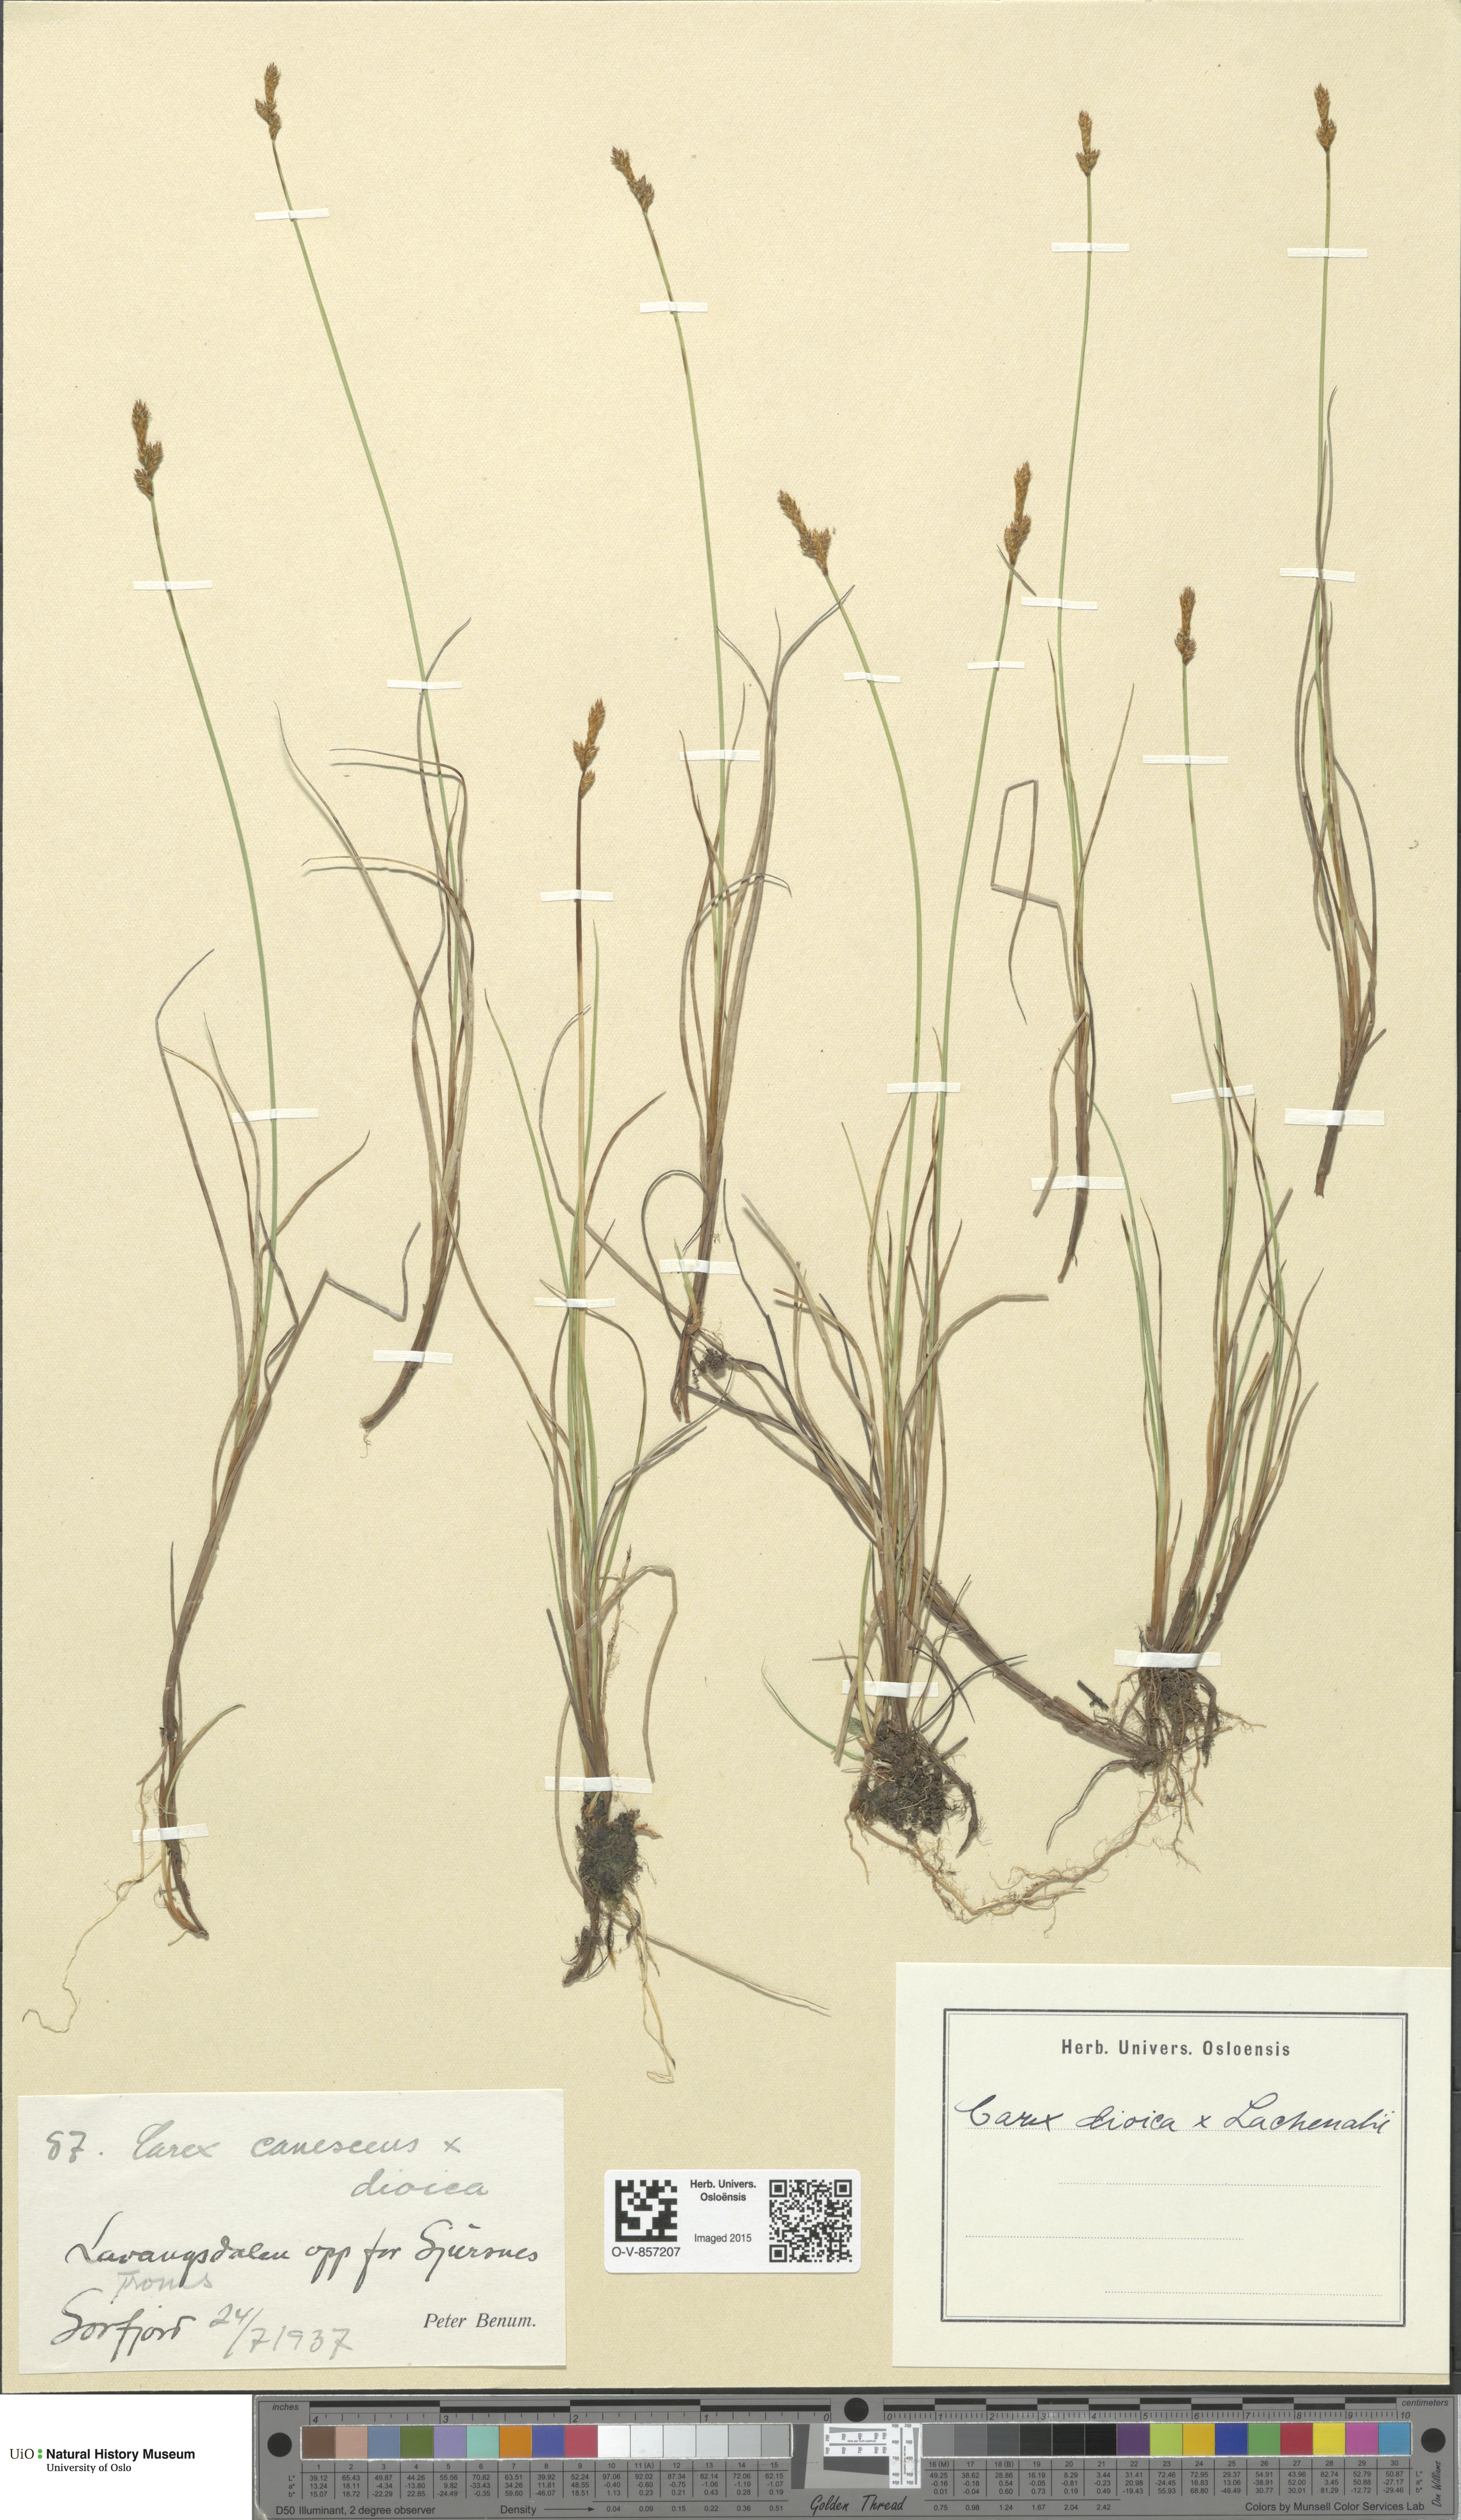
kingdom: Plantae
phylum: Tracheophyta
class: Liliopsida
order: Poales
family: Cyperaceae
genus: Carex
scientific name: Carex
